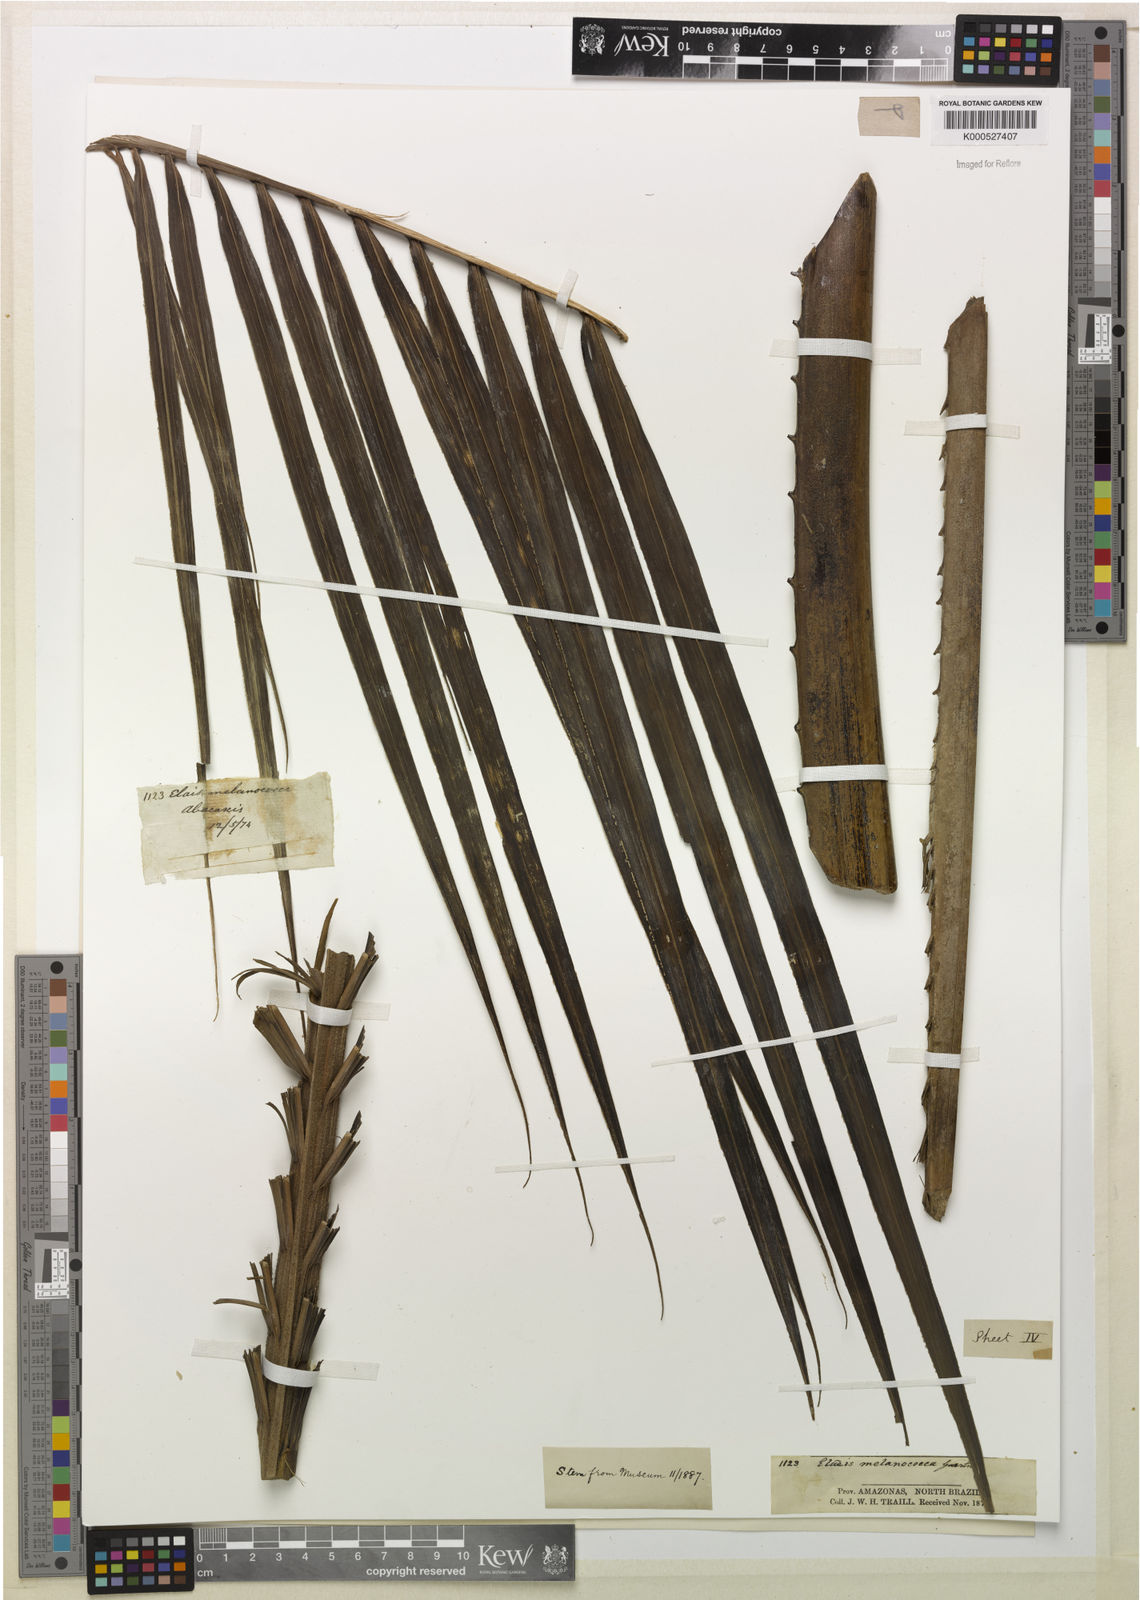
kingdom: Plantae
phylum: Tracheophyta
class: Liliopsida
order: Arecales
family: Arecaceae
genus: Elaeis
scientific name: Elaeis oleifera
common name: American oil palm
